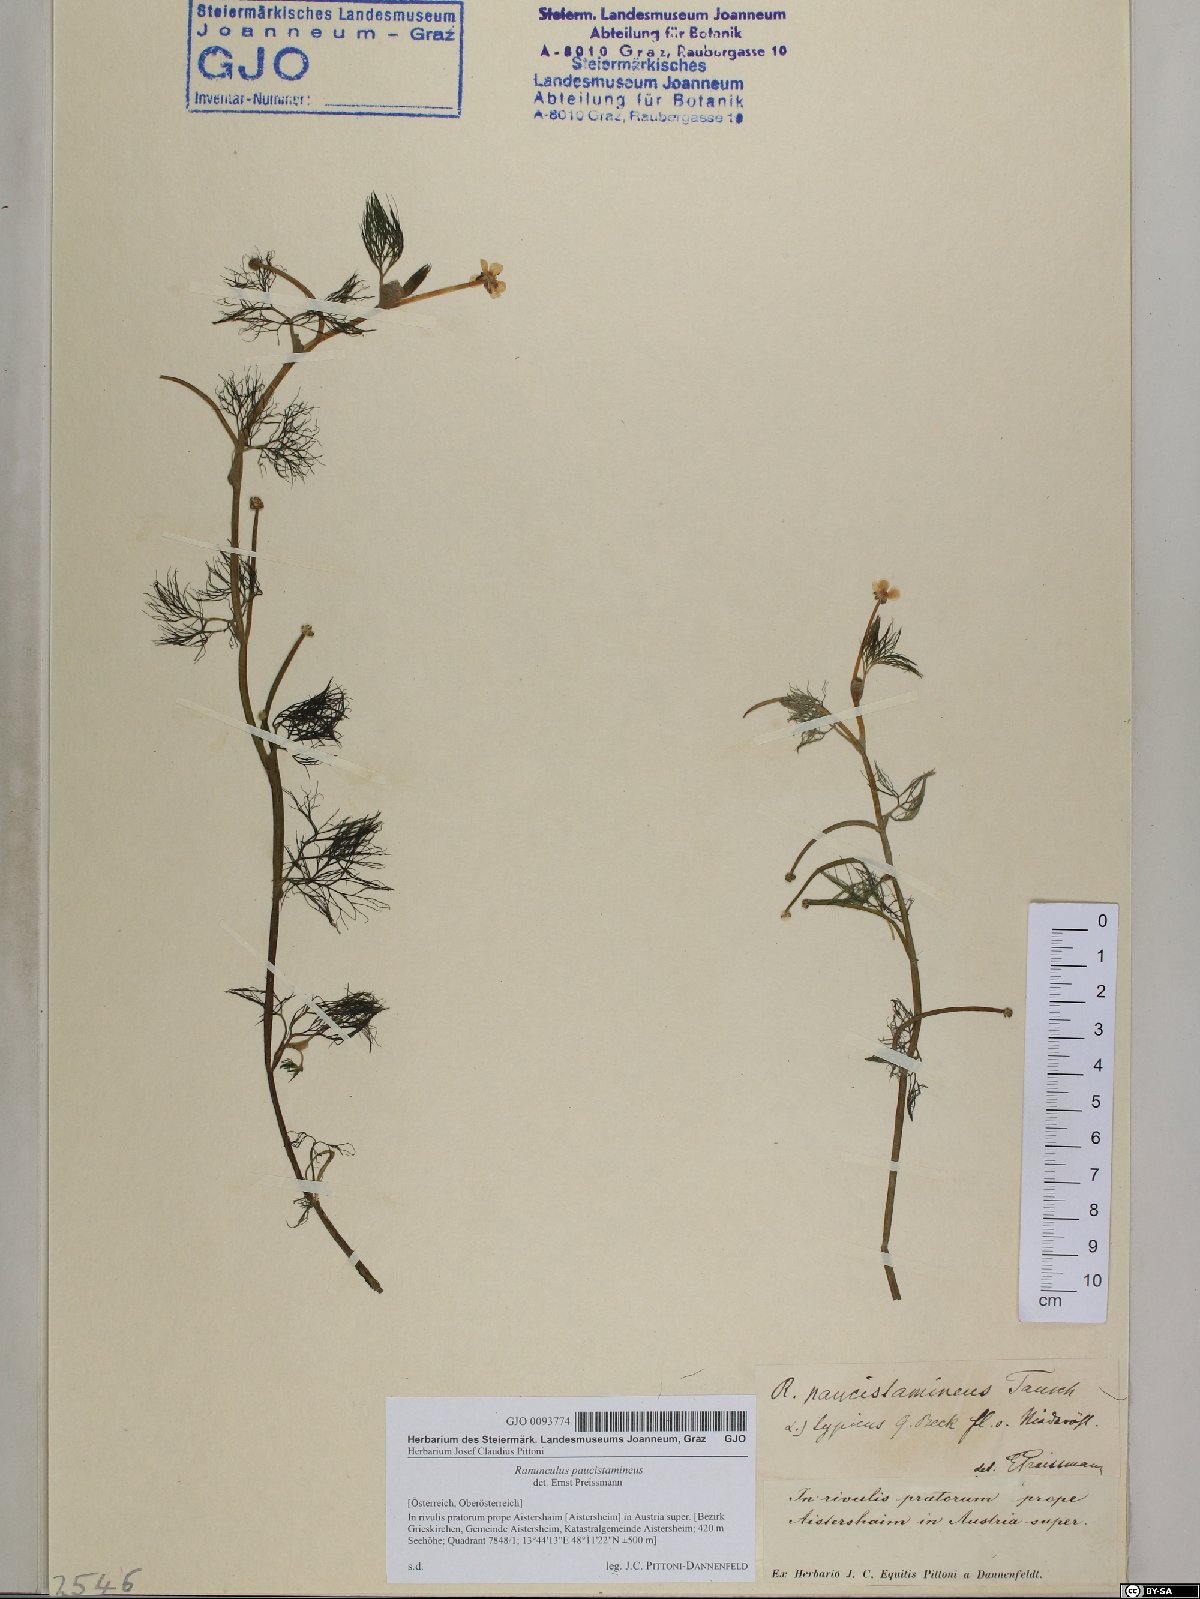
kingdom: Plantae
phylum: Tracheophyta
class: Magnoliopsida
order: Ranunculales
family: Ranunculaceae
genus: Ranunculus
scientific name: Ranunculus
